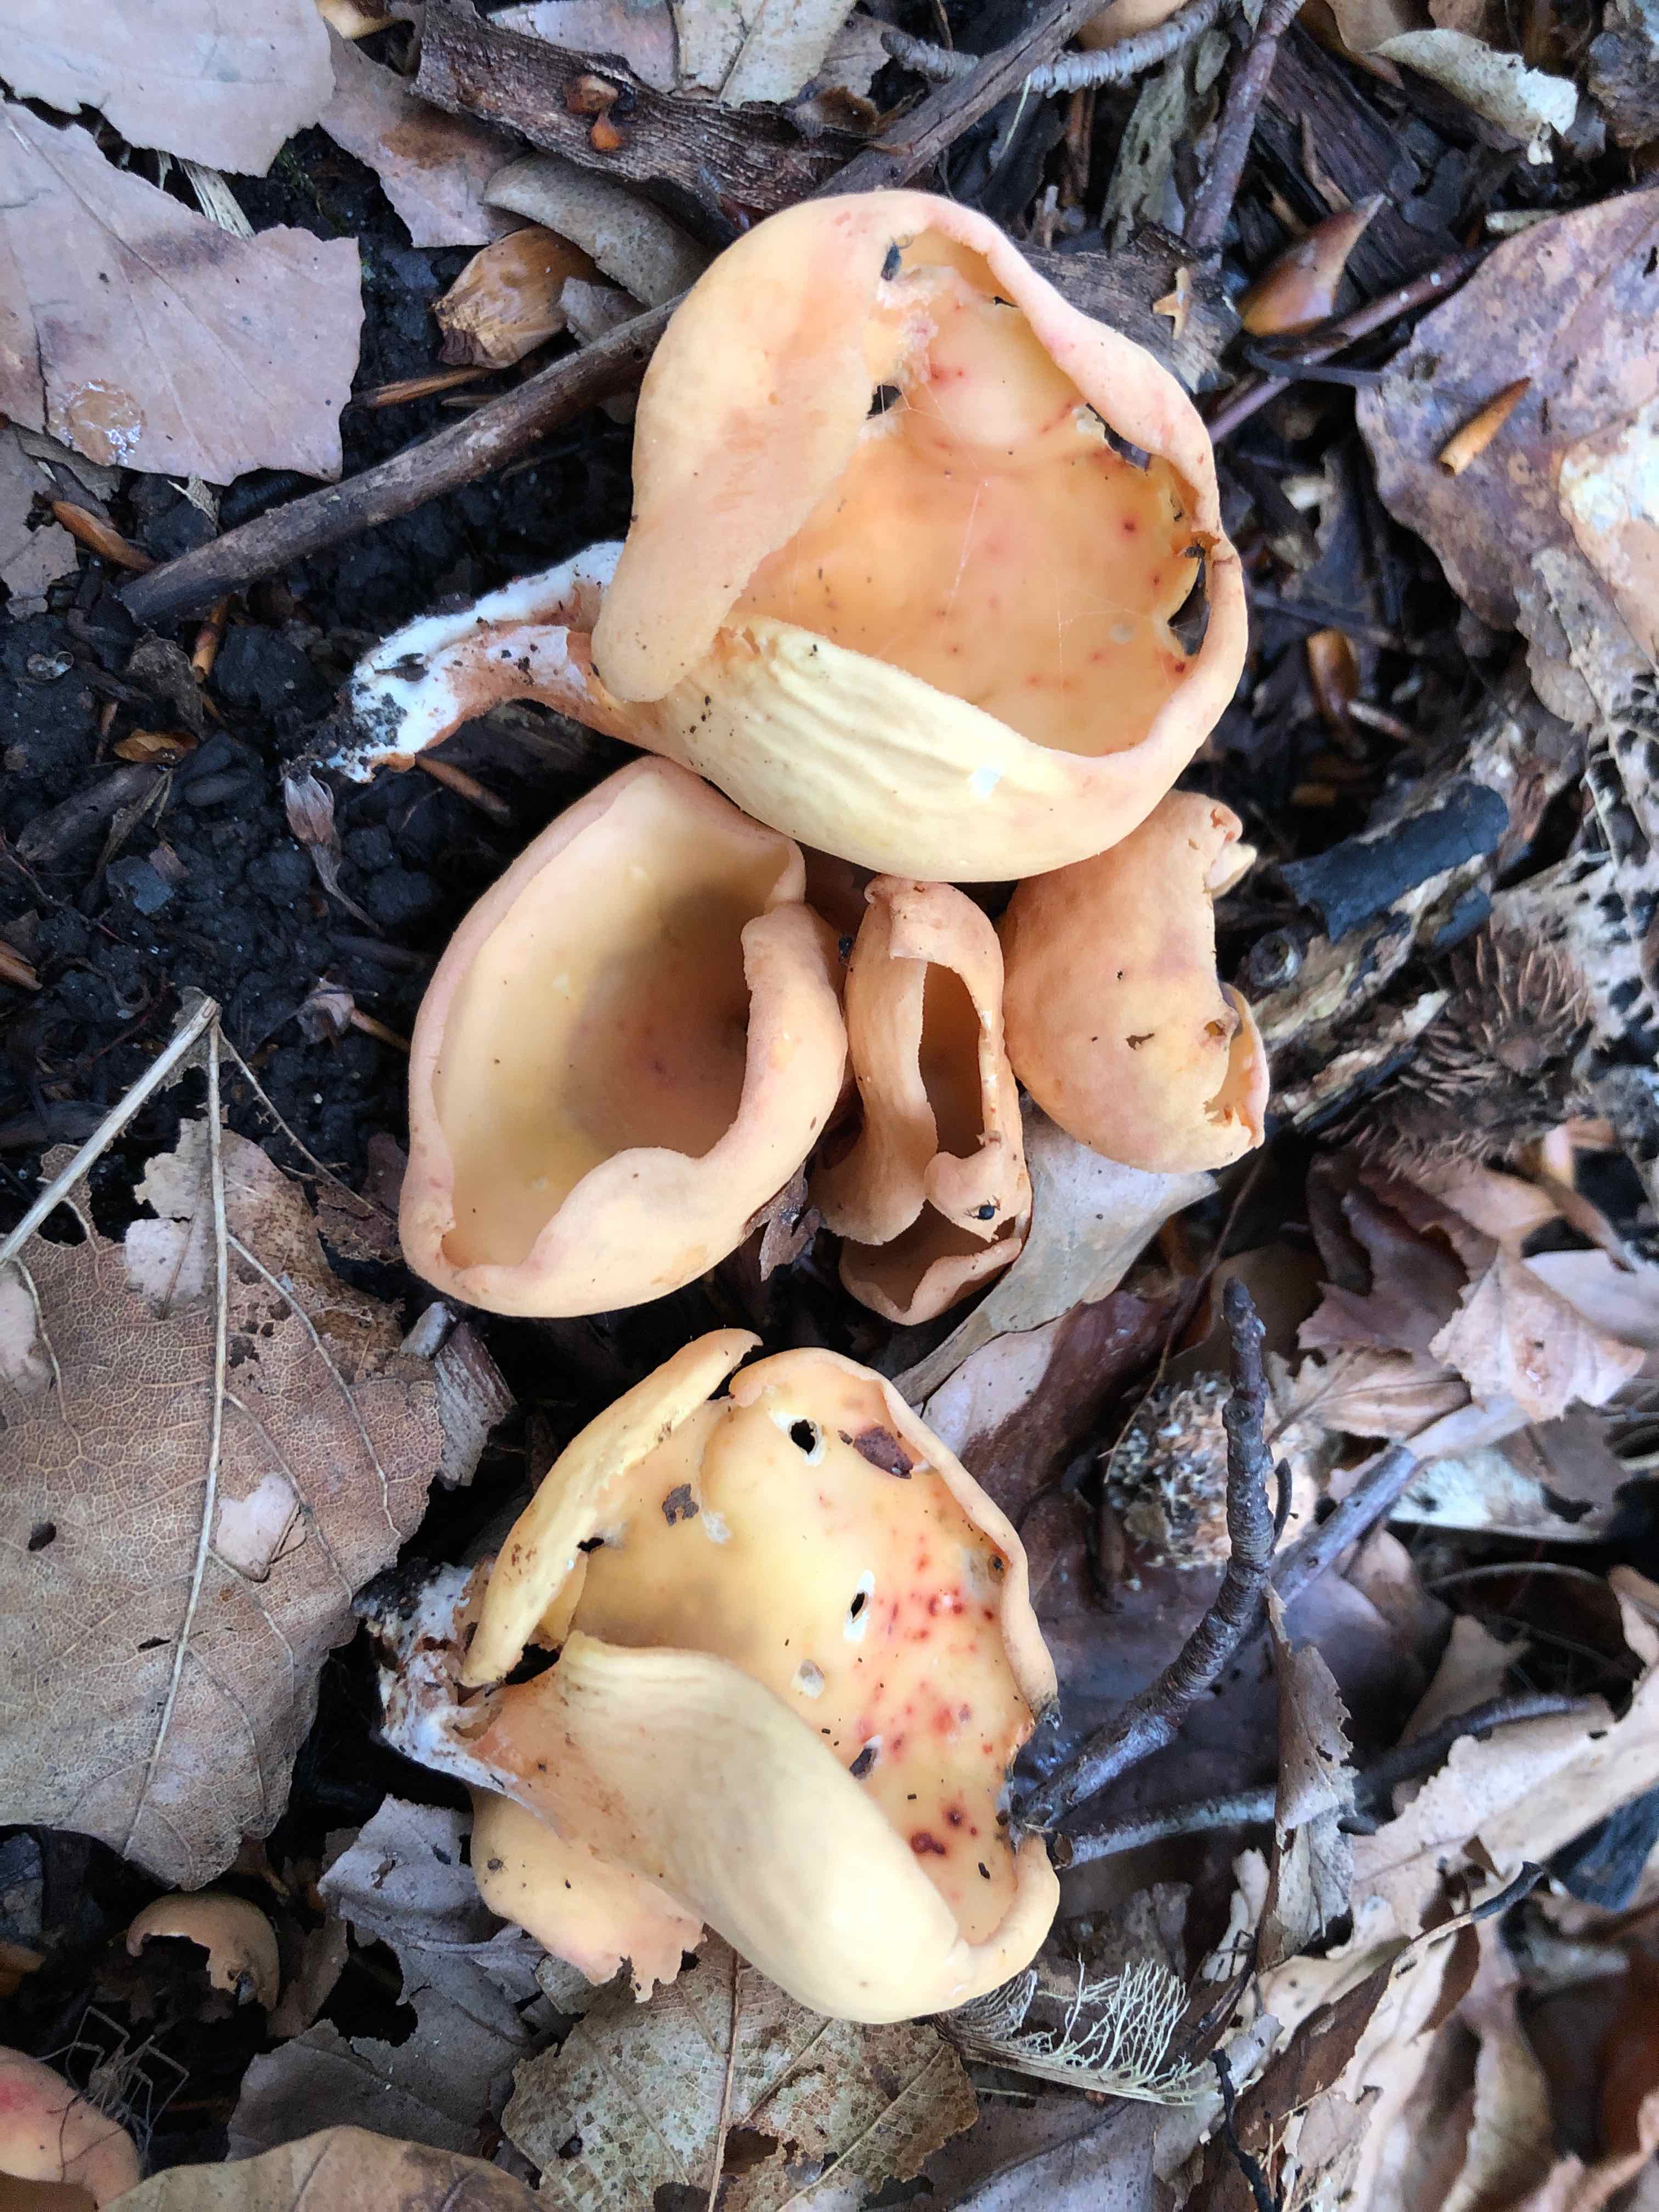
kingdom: Fungi
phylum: Ascomycota
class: Pezizomycetes
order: Pezizales
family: Otideaceae
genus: Otidea
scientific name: Otidea onotica
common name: æsel-ørebæger
